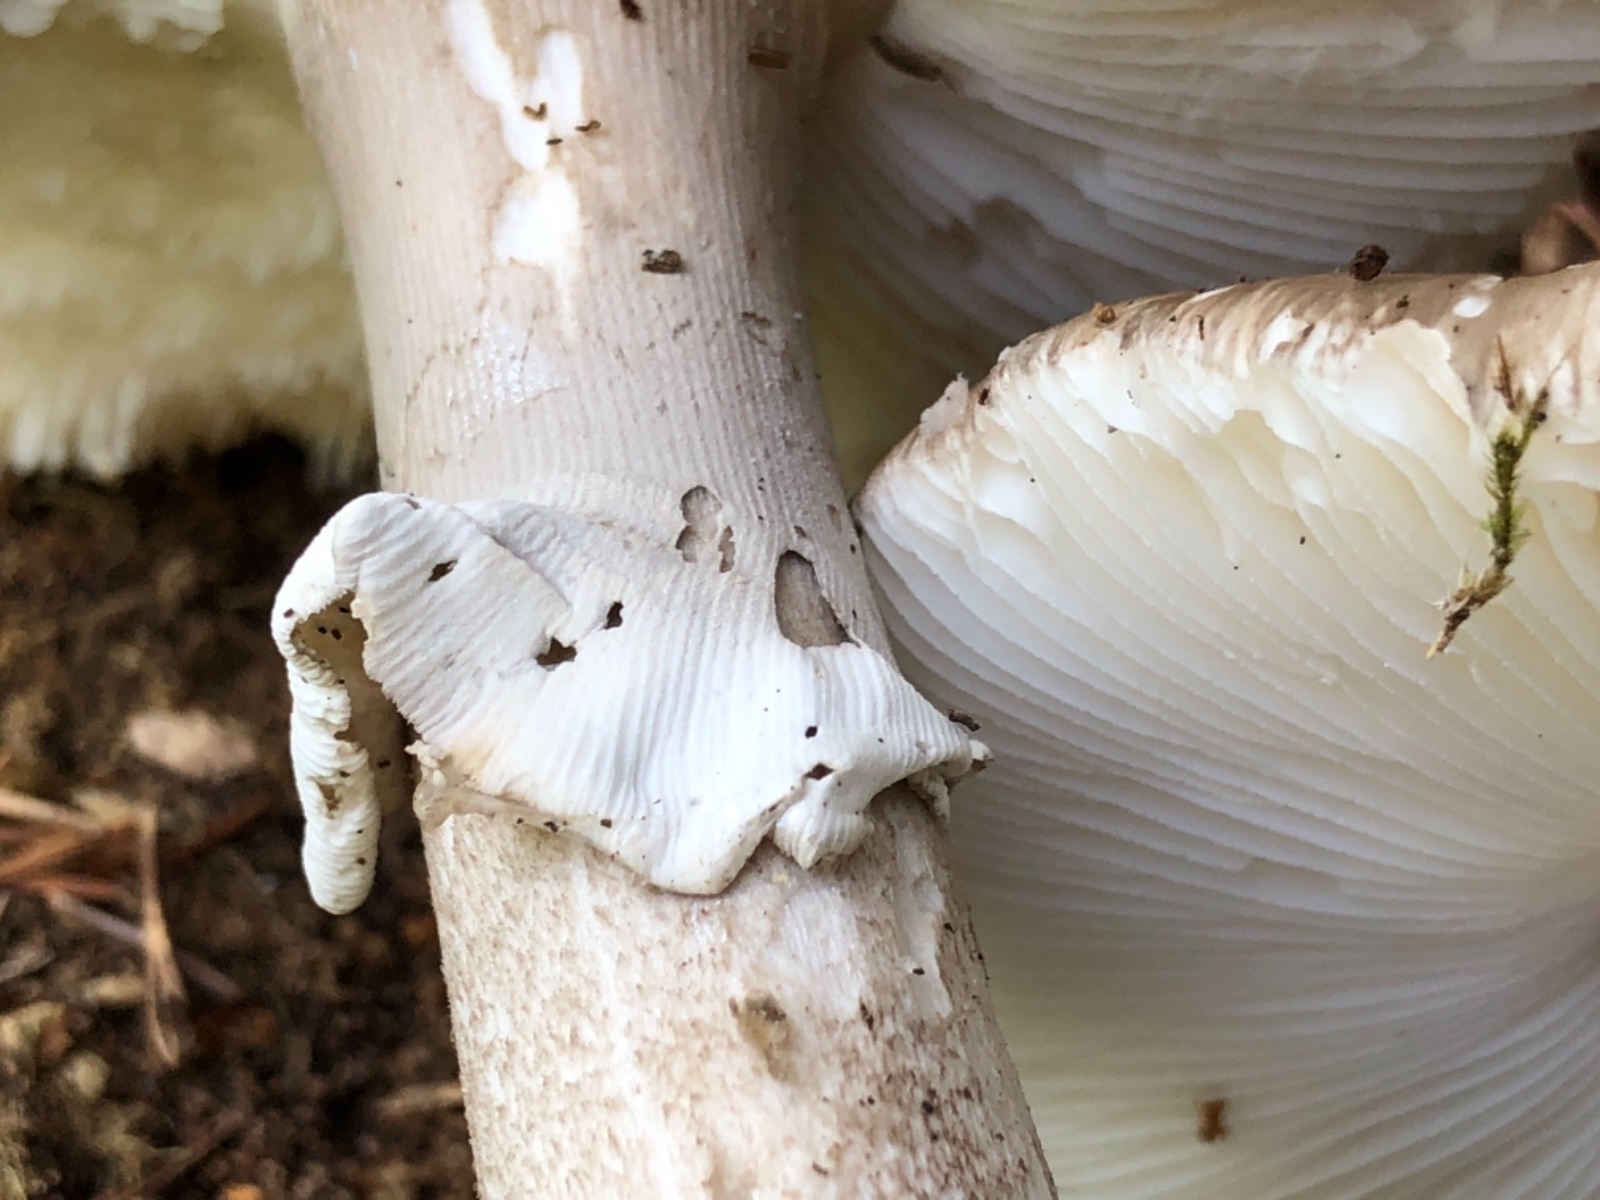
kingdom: Fungi
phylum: Basidiomycota
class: Agaricomycetes
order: Agaricales
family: Amanitaceae
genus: Amanita
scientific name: Amanita
